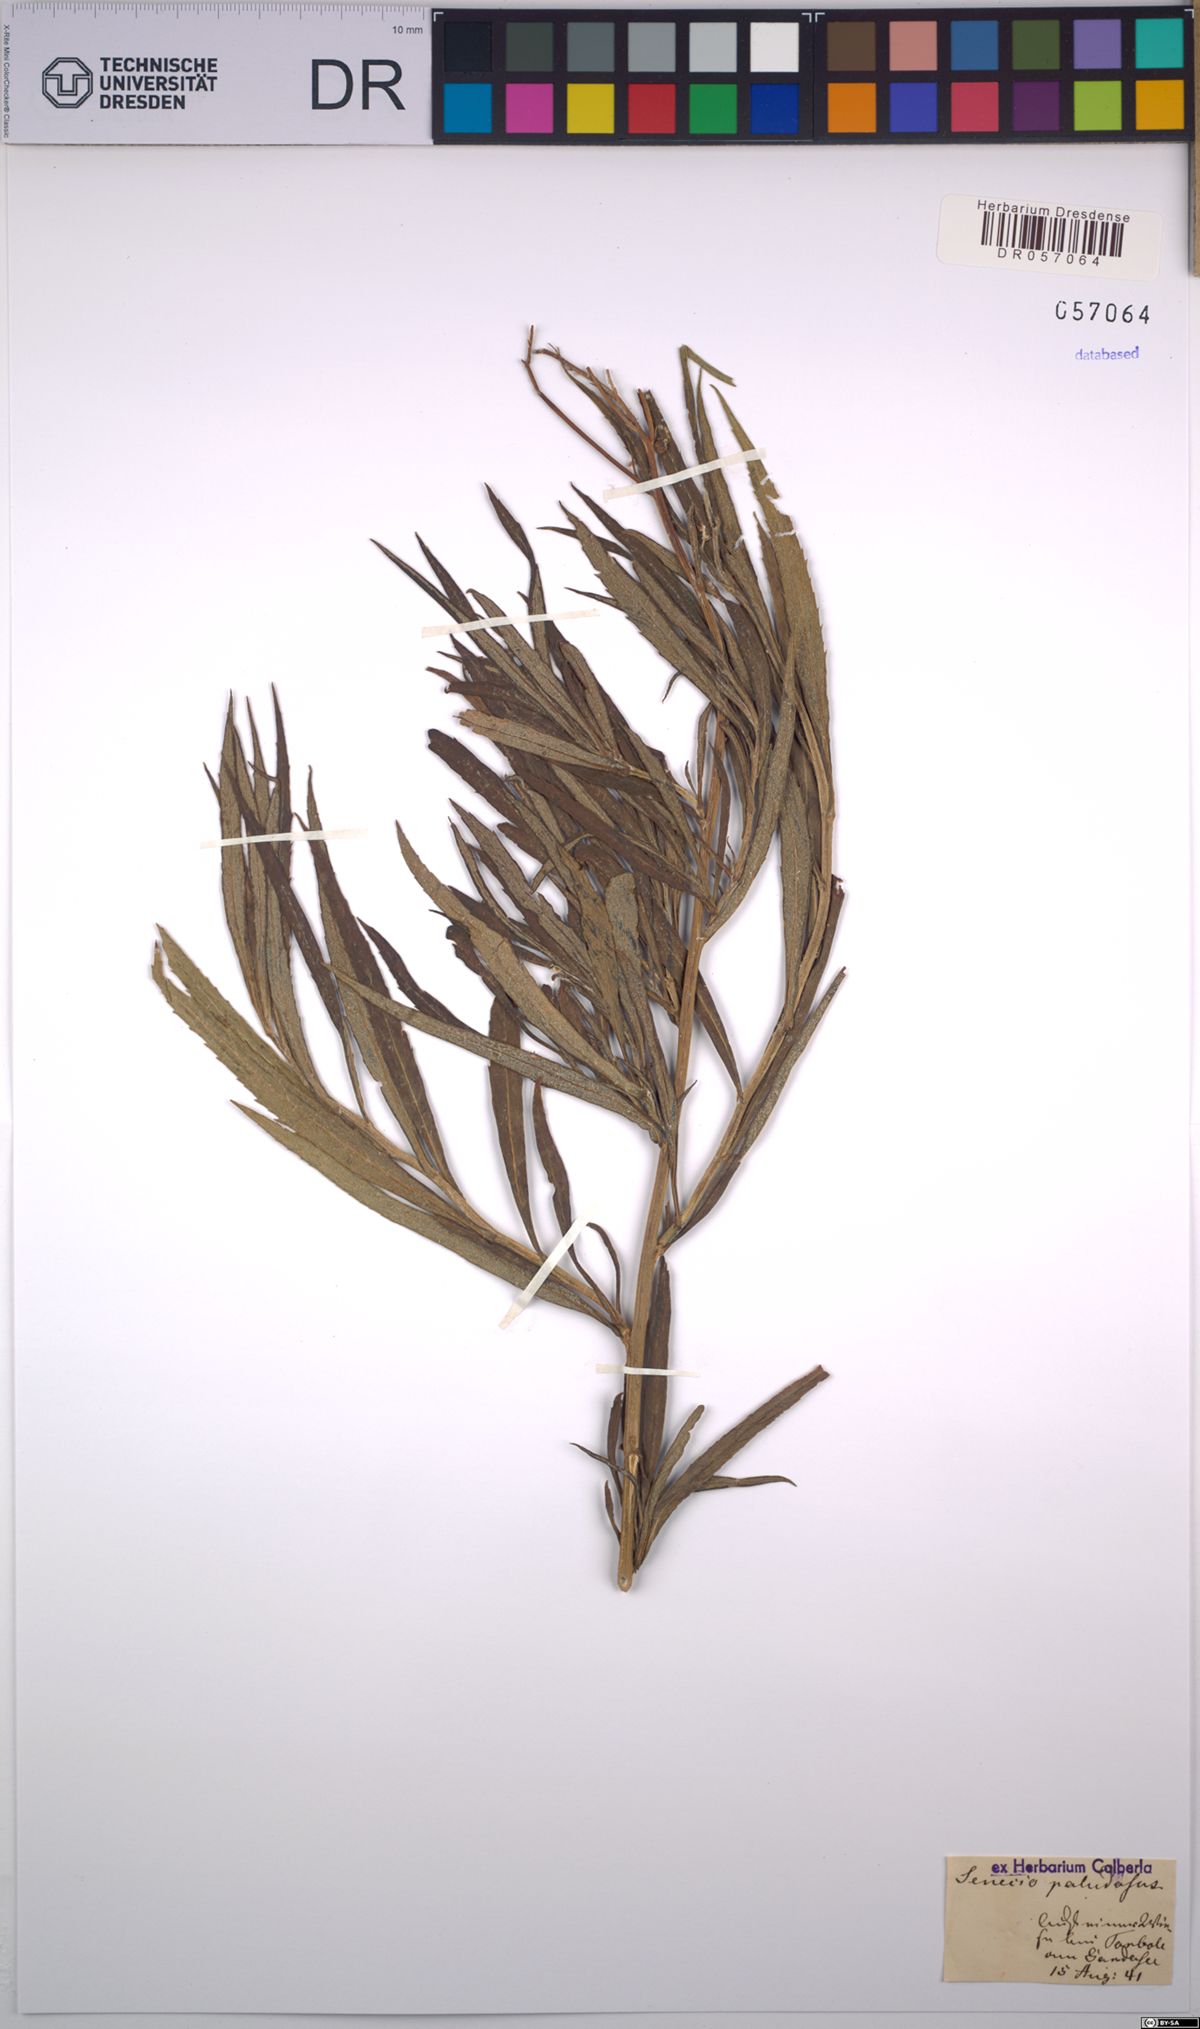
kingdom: Plantae
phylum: Tracheophyta
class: Magnoliopsida
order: Asterales
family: Asteraceae
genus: Jacobaea
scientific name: Jacobaea paludosa
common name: Fen ragwort
